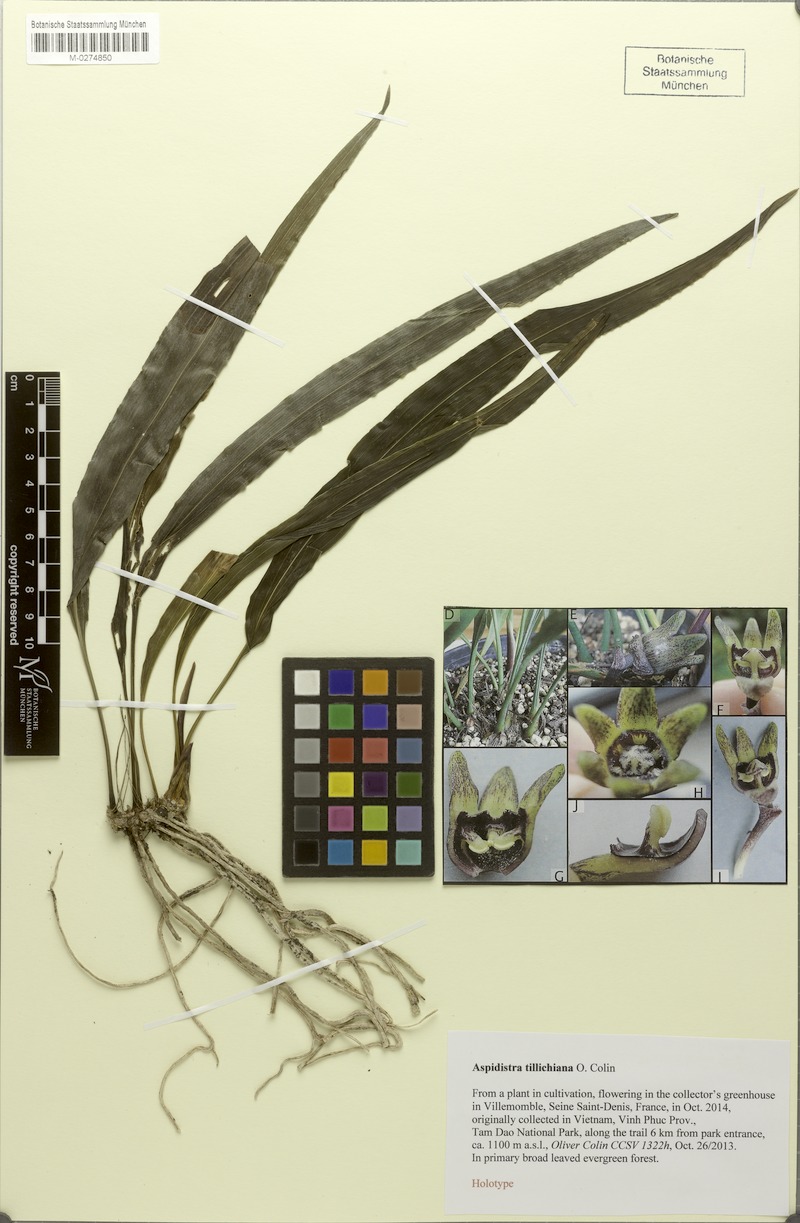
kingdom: Plantae
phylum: Tracheophyta
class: Liliopsida
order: Asparagales
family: Asparagaceae
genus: Aspidistra
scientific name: Aspidistra tillichiana
